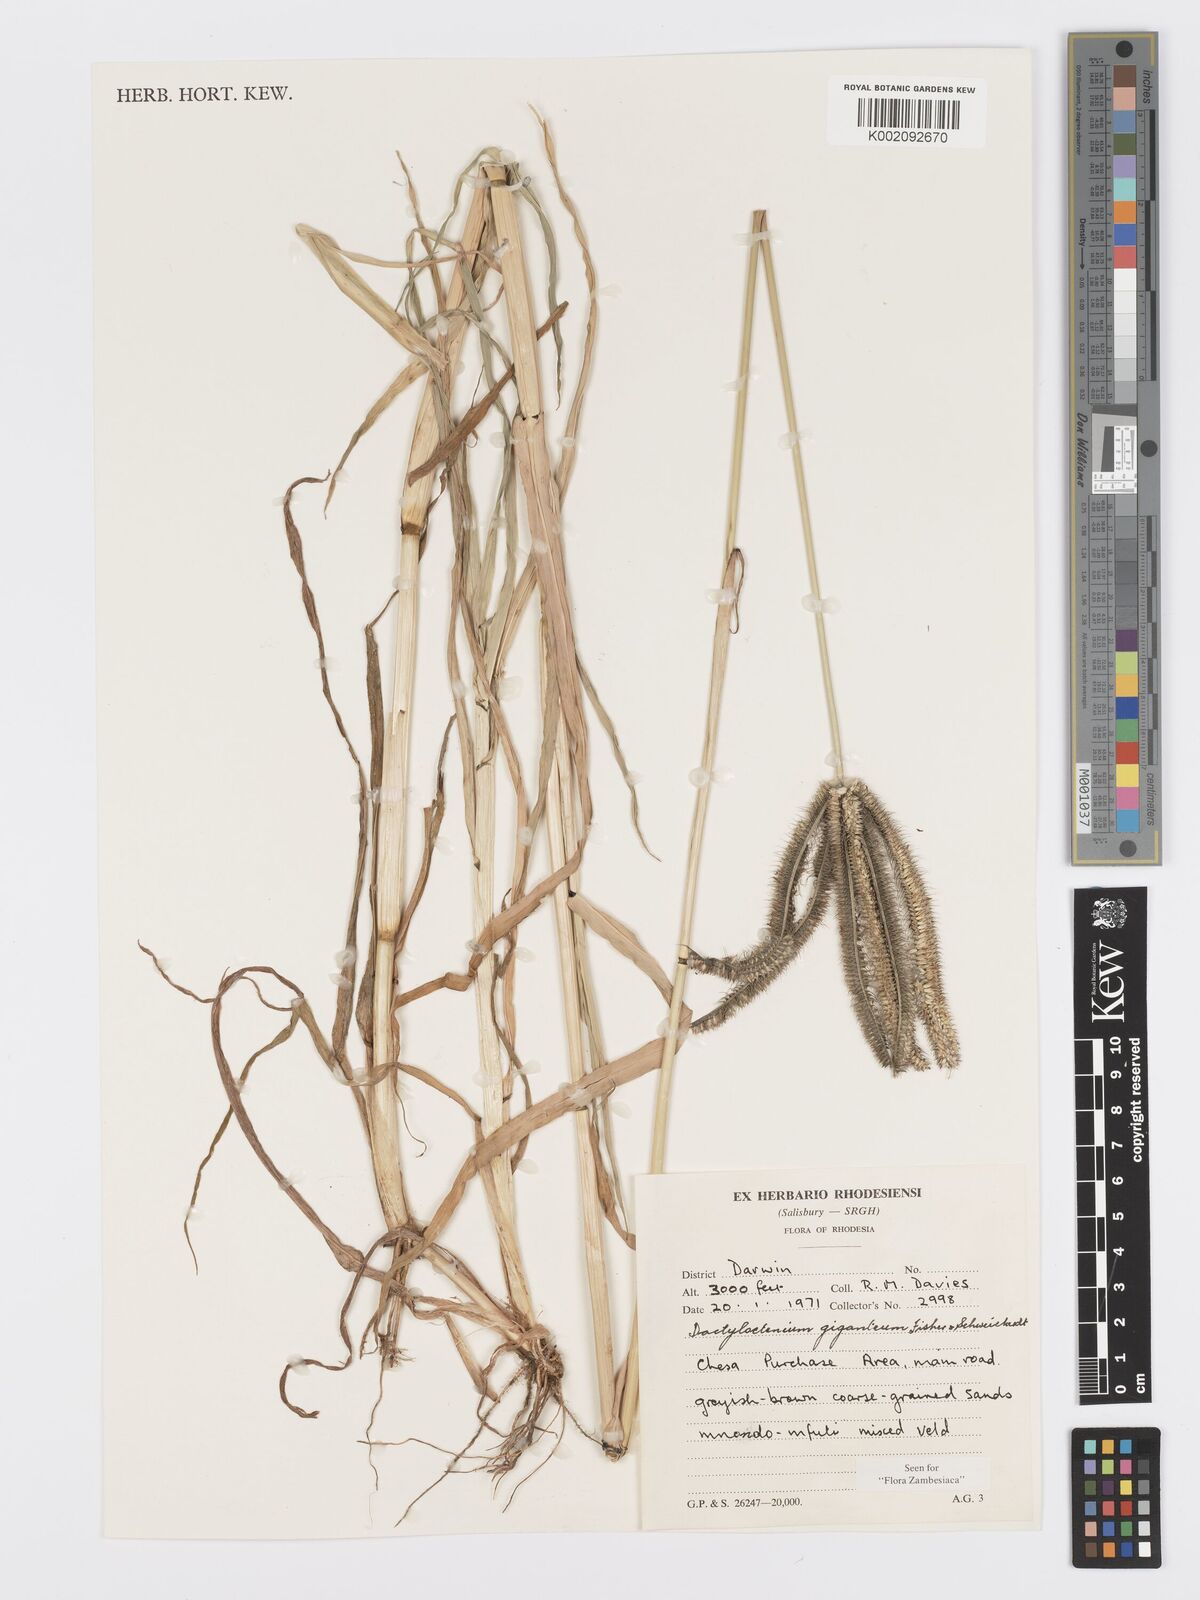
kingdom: Plantae
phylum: Tracheophyta
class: Liliopsida
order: Poales
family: Poaceae
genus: Dactyloctenium
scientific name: Dactyloctenium giganteum
